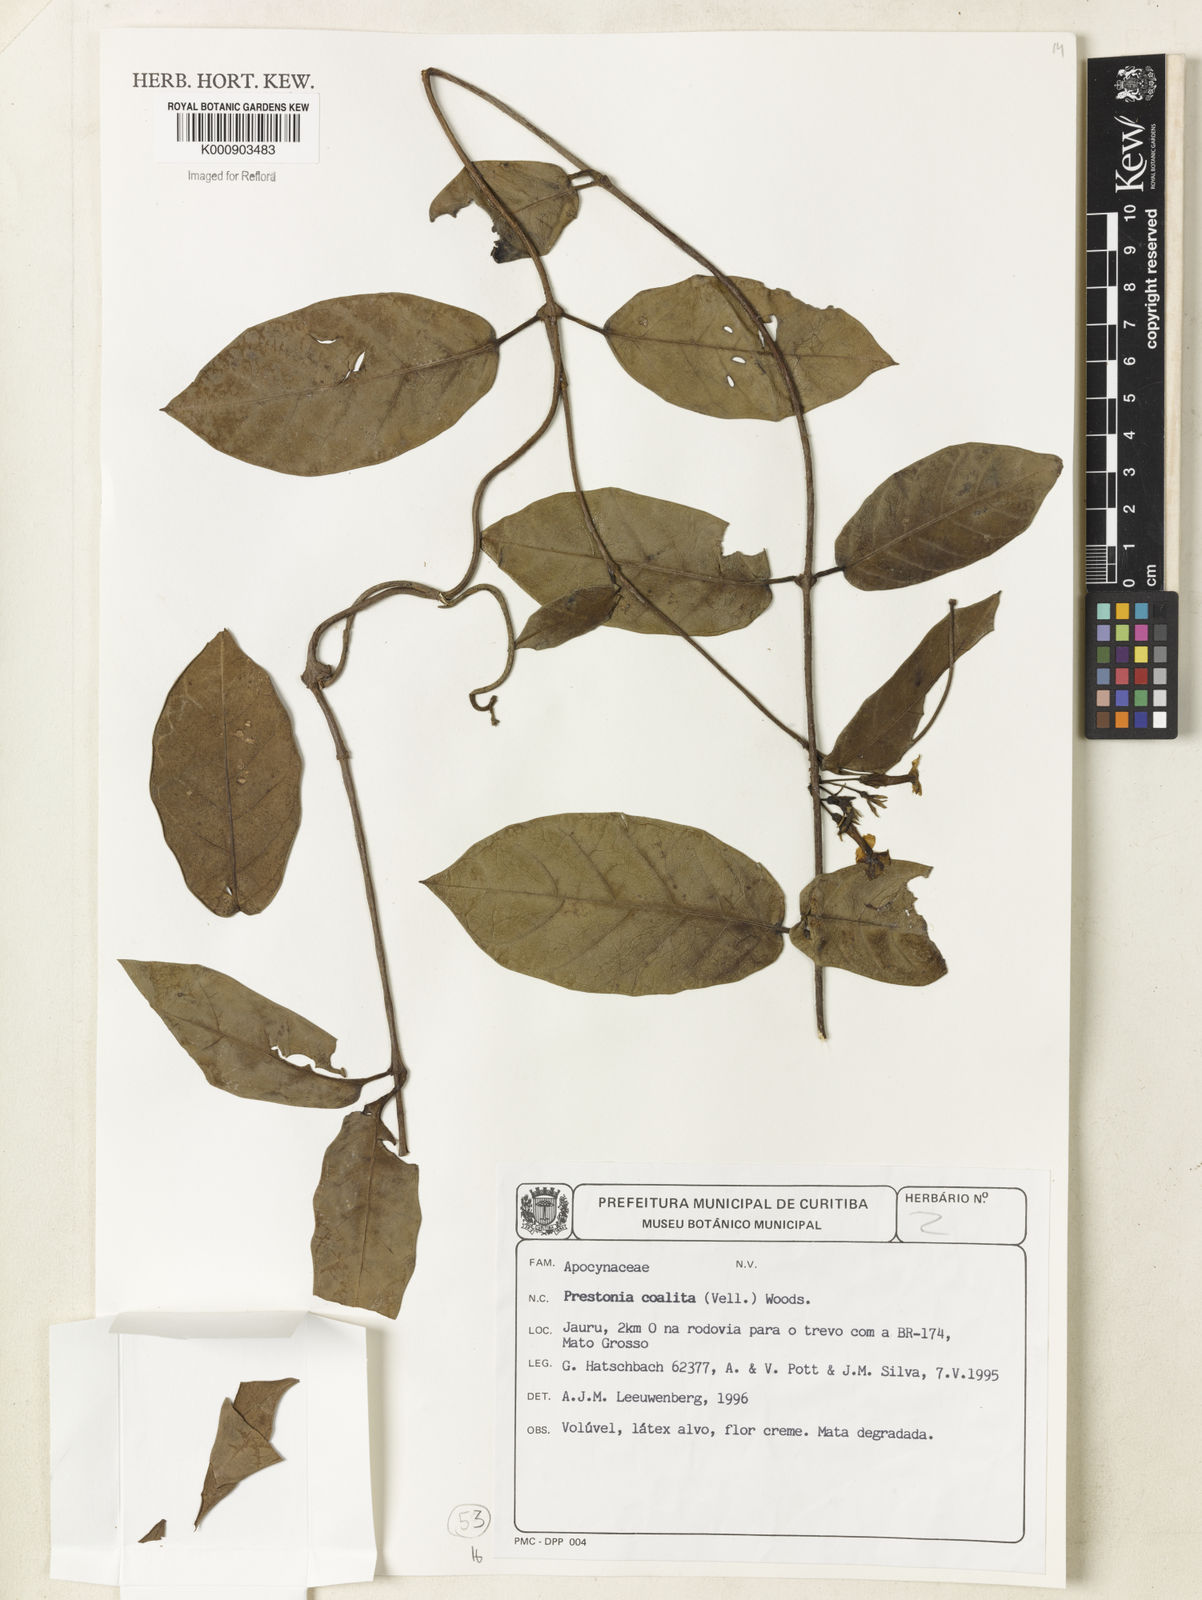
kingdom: Plantae
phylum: Tracheophyta
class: Magnoliopsida
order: Gentianales
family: Apocynaceae
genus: Prestonia
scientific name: Prestonia coalita
